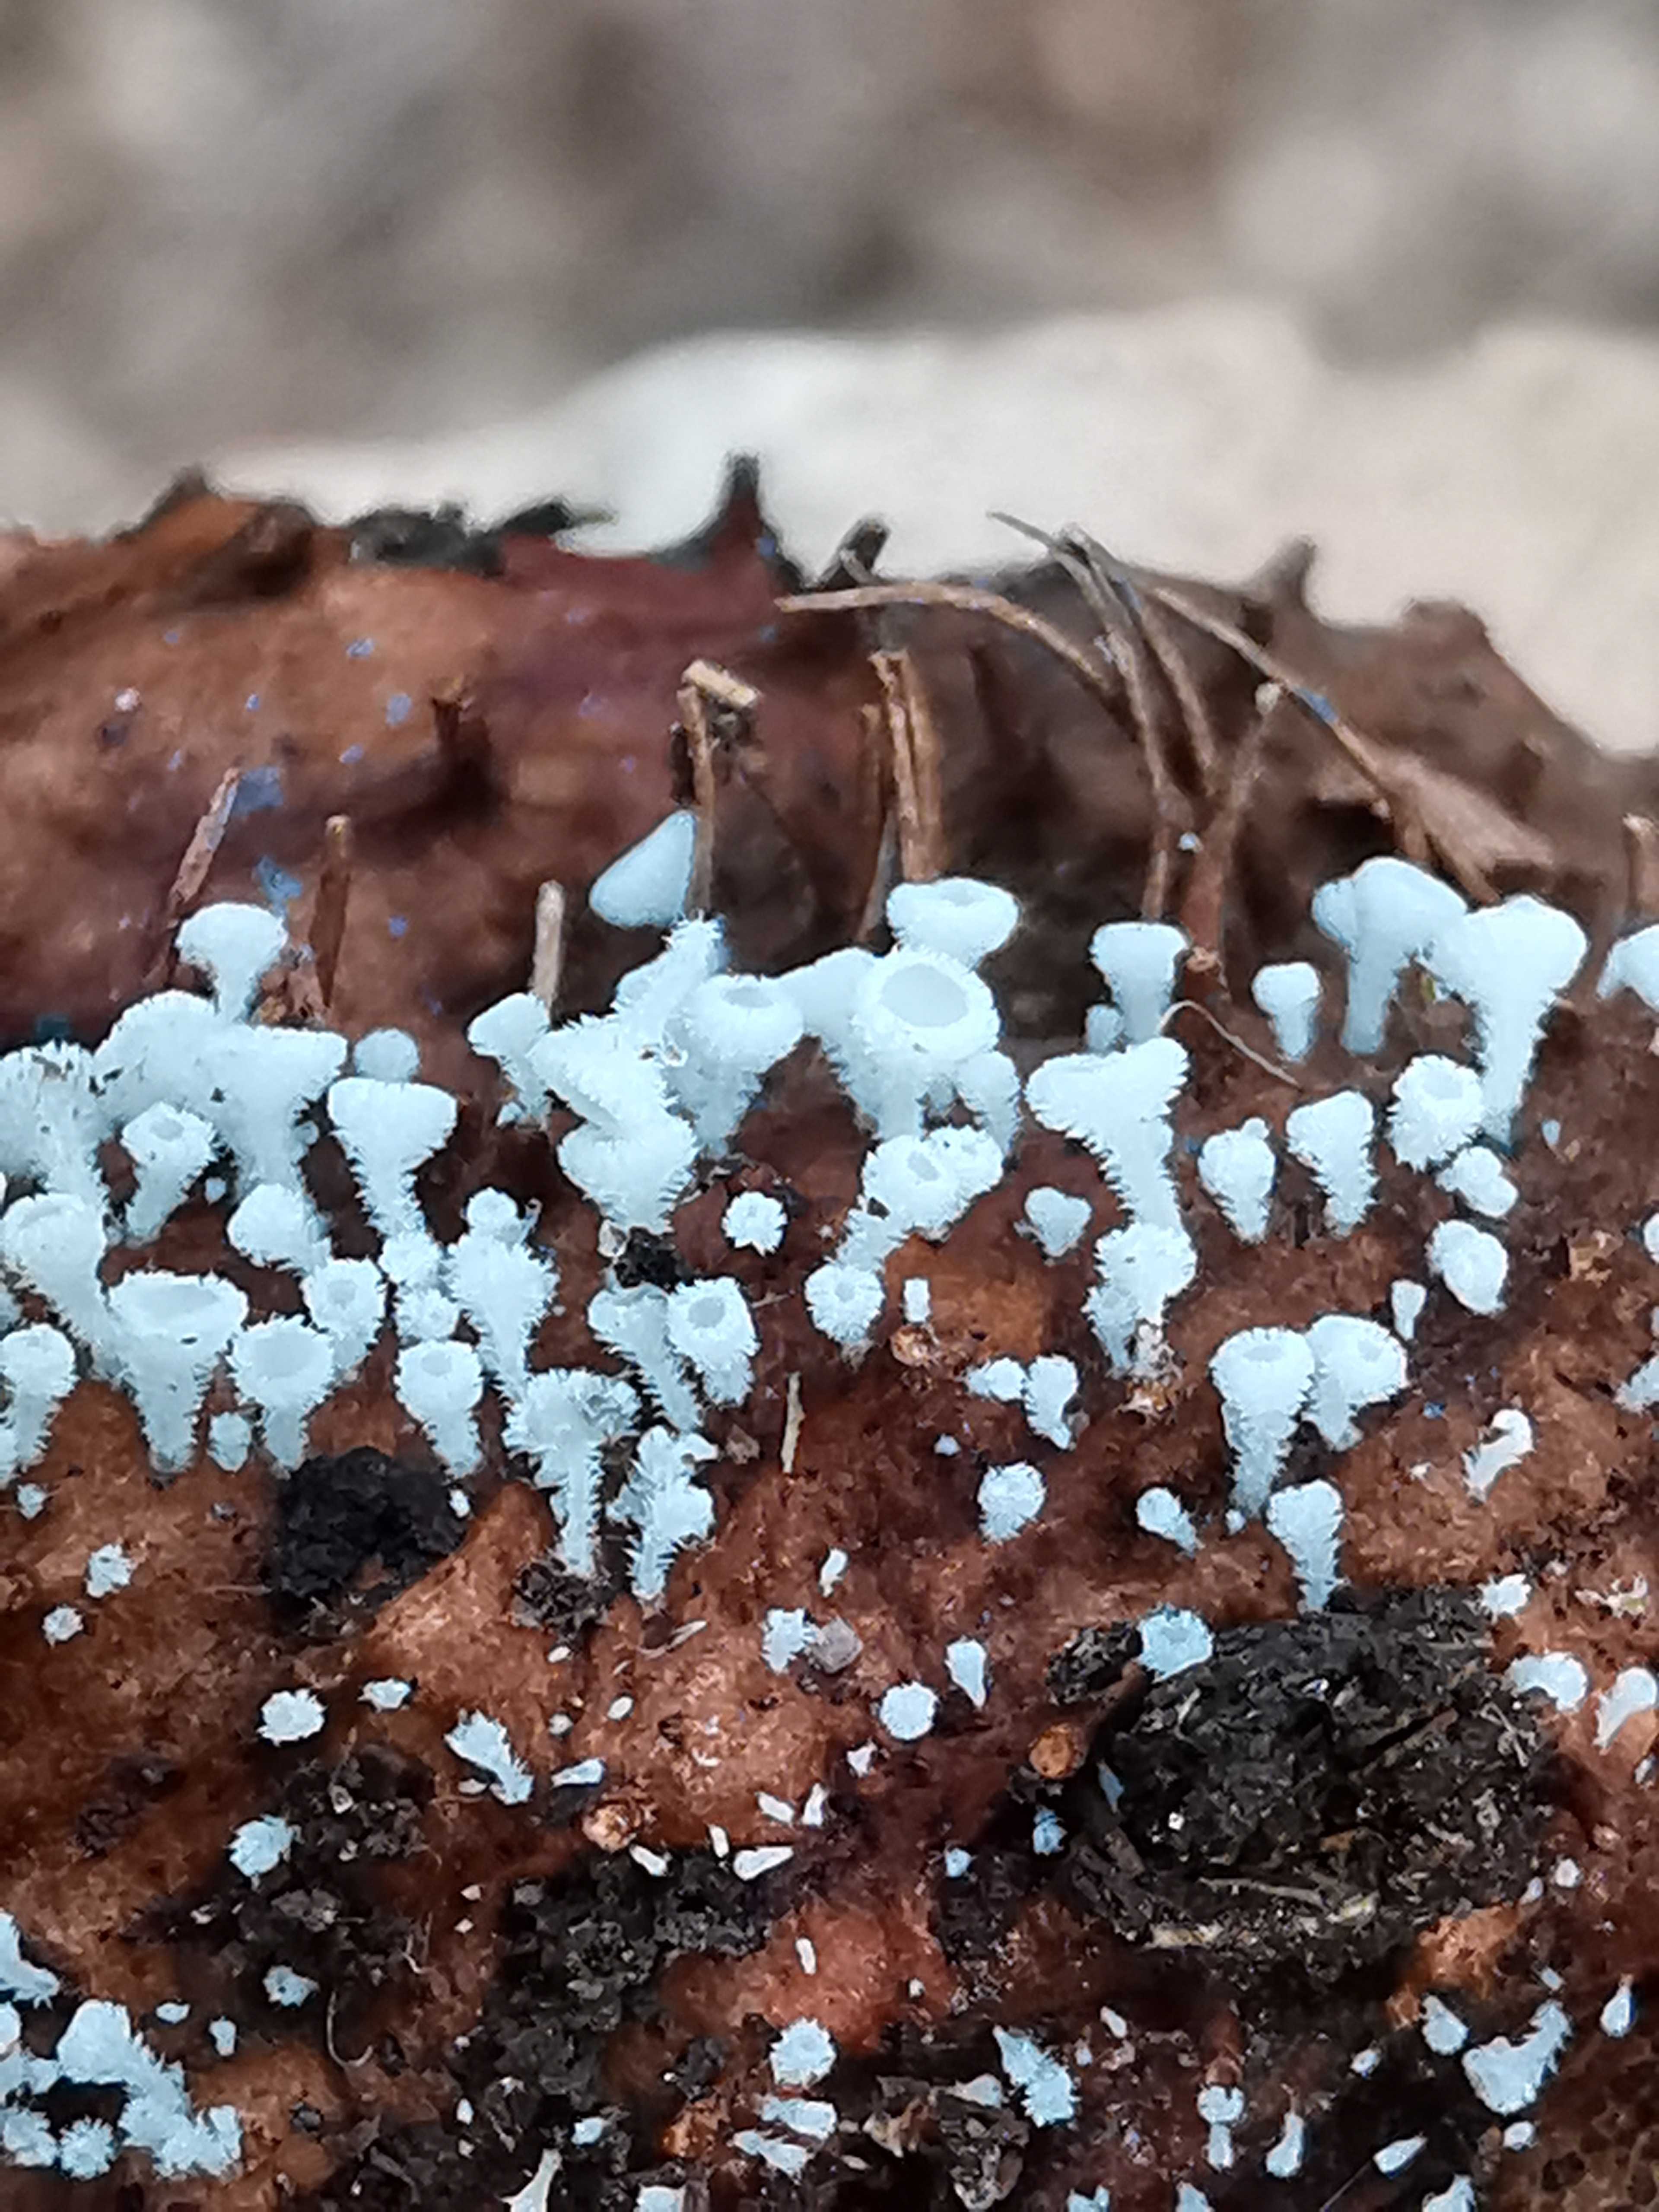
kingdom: Fungi
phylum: Ascomycota
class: Leotiomycetes
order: Helotiales
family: Lachnaceae
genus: Lachnum
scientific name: Lachnum virgineum
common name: jomfru-frynseskive
